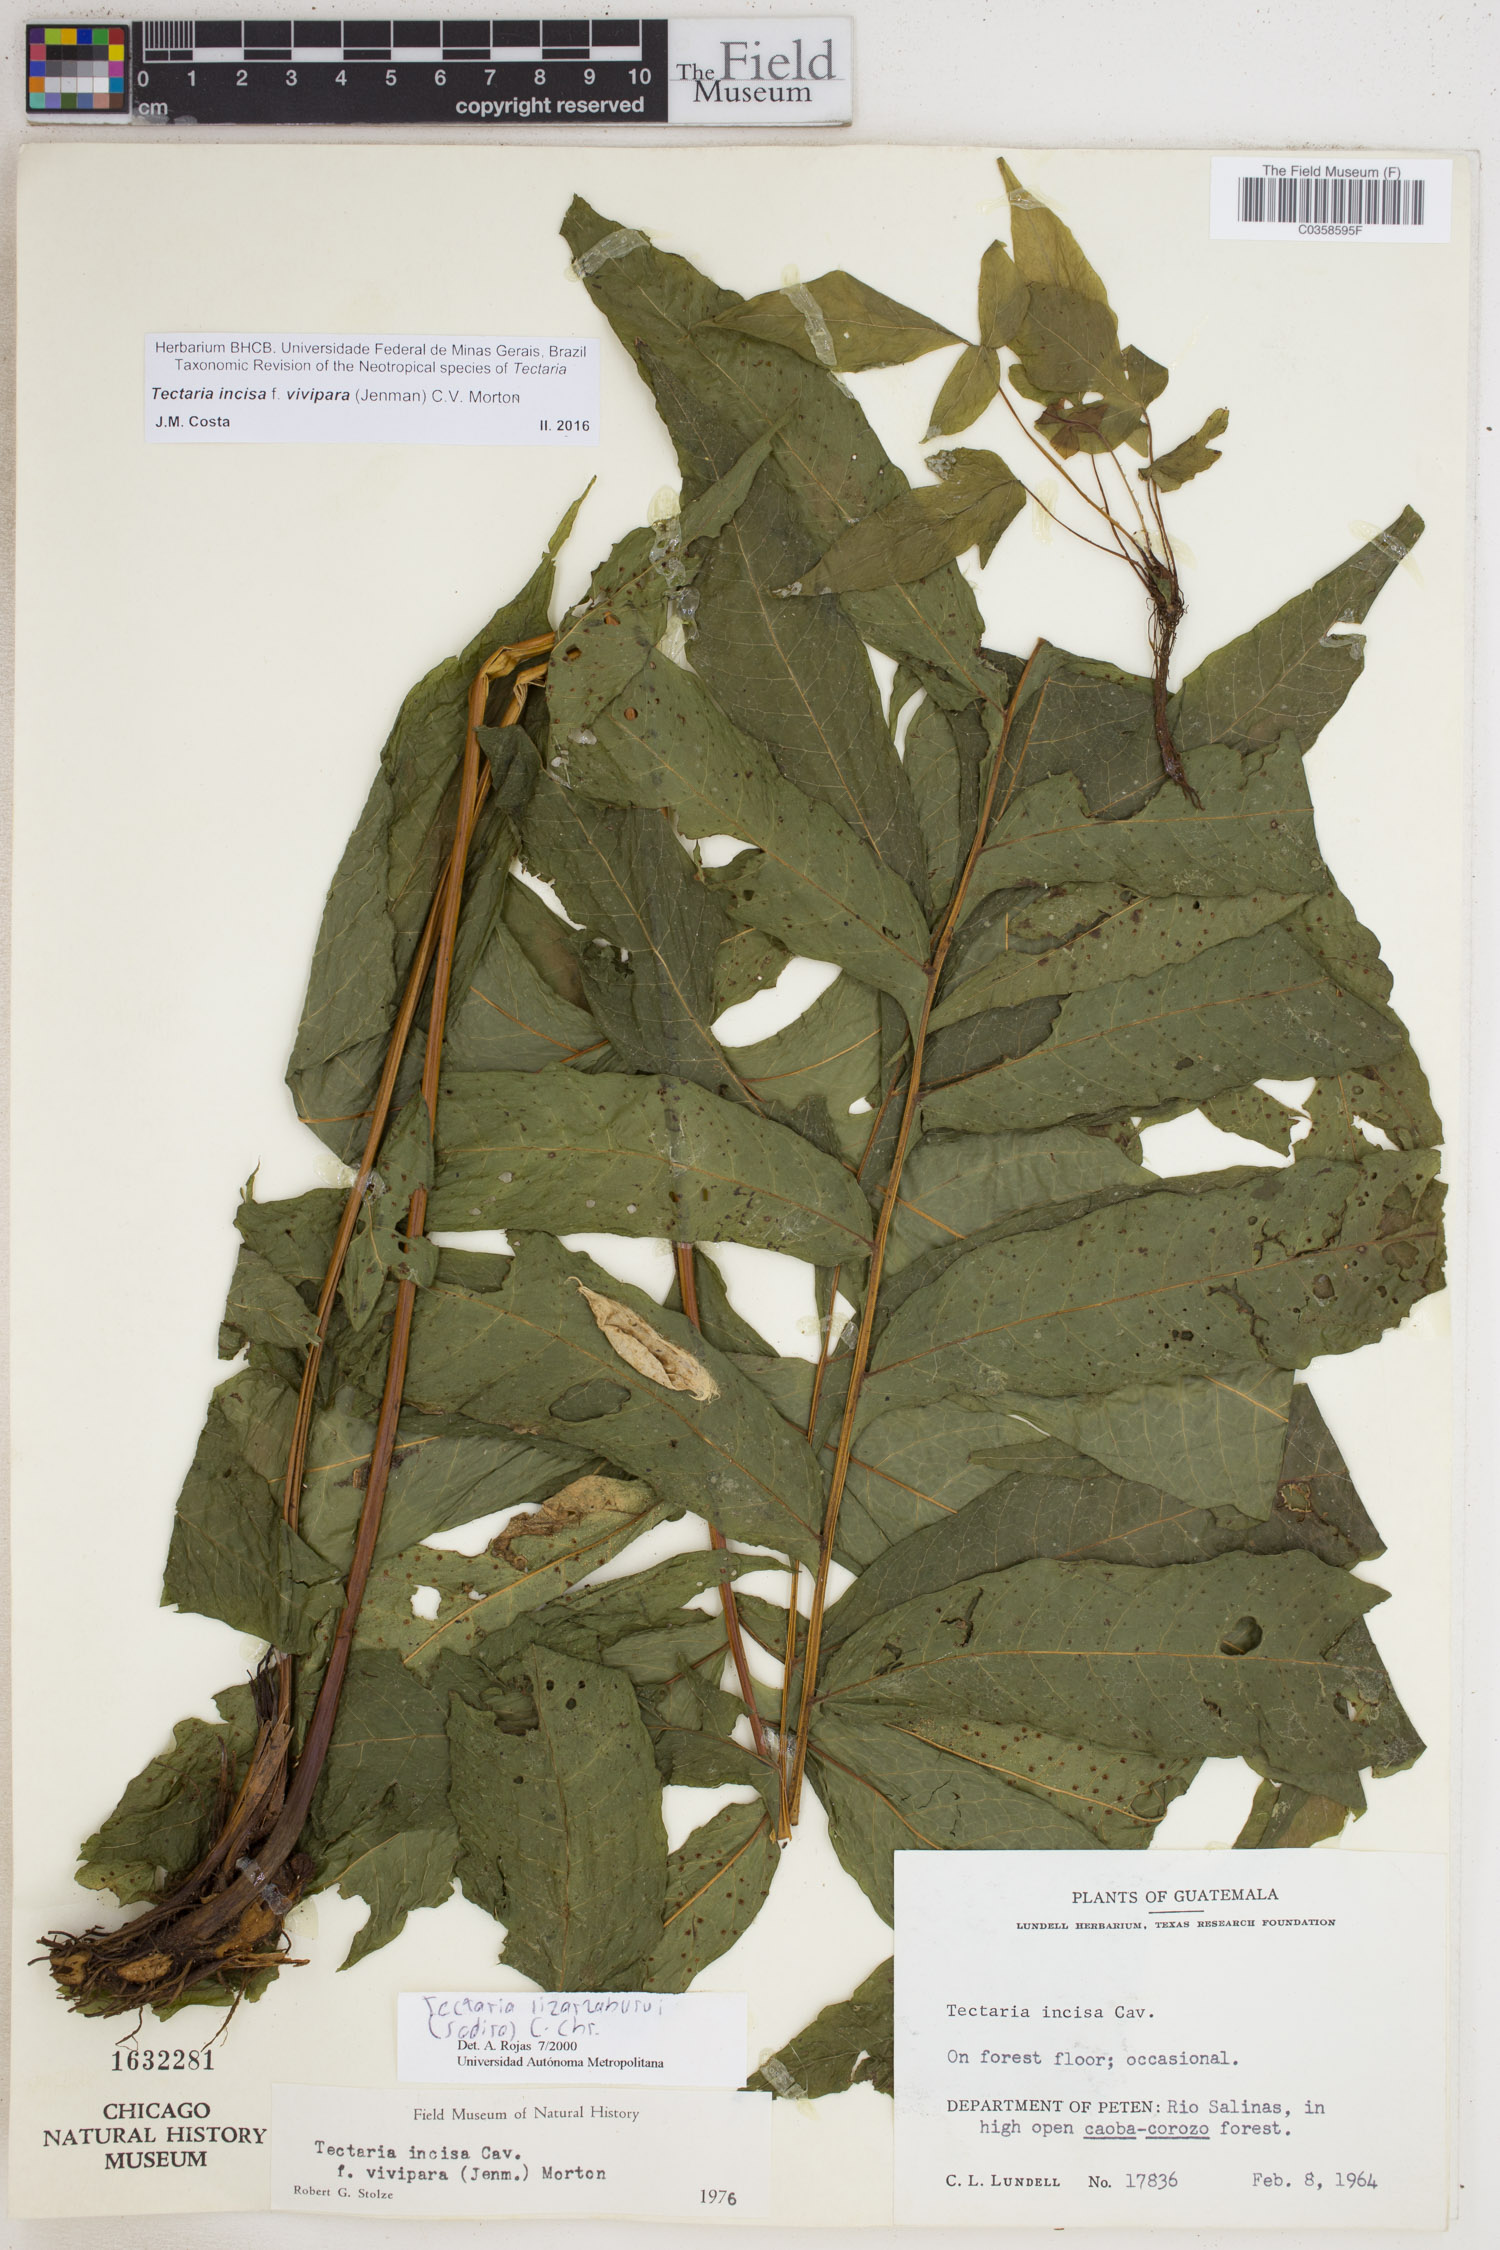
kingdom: Plantae
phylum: Tracheophyta
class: Polypodiopsida
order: Polypodiales
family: Tectariaceae
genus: Tectaria
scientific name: Tectaria incisa
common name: Incised halberd fern
